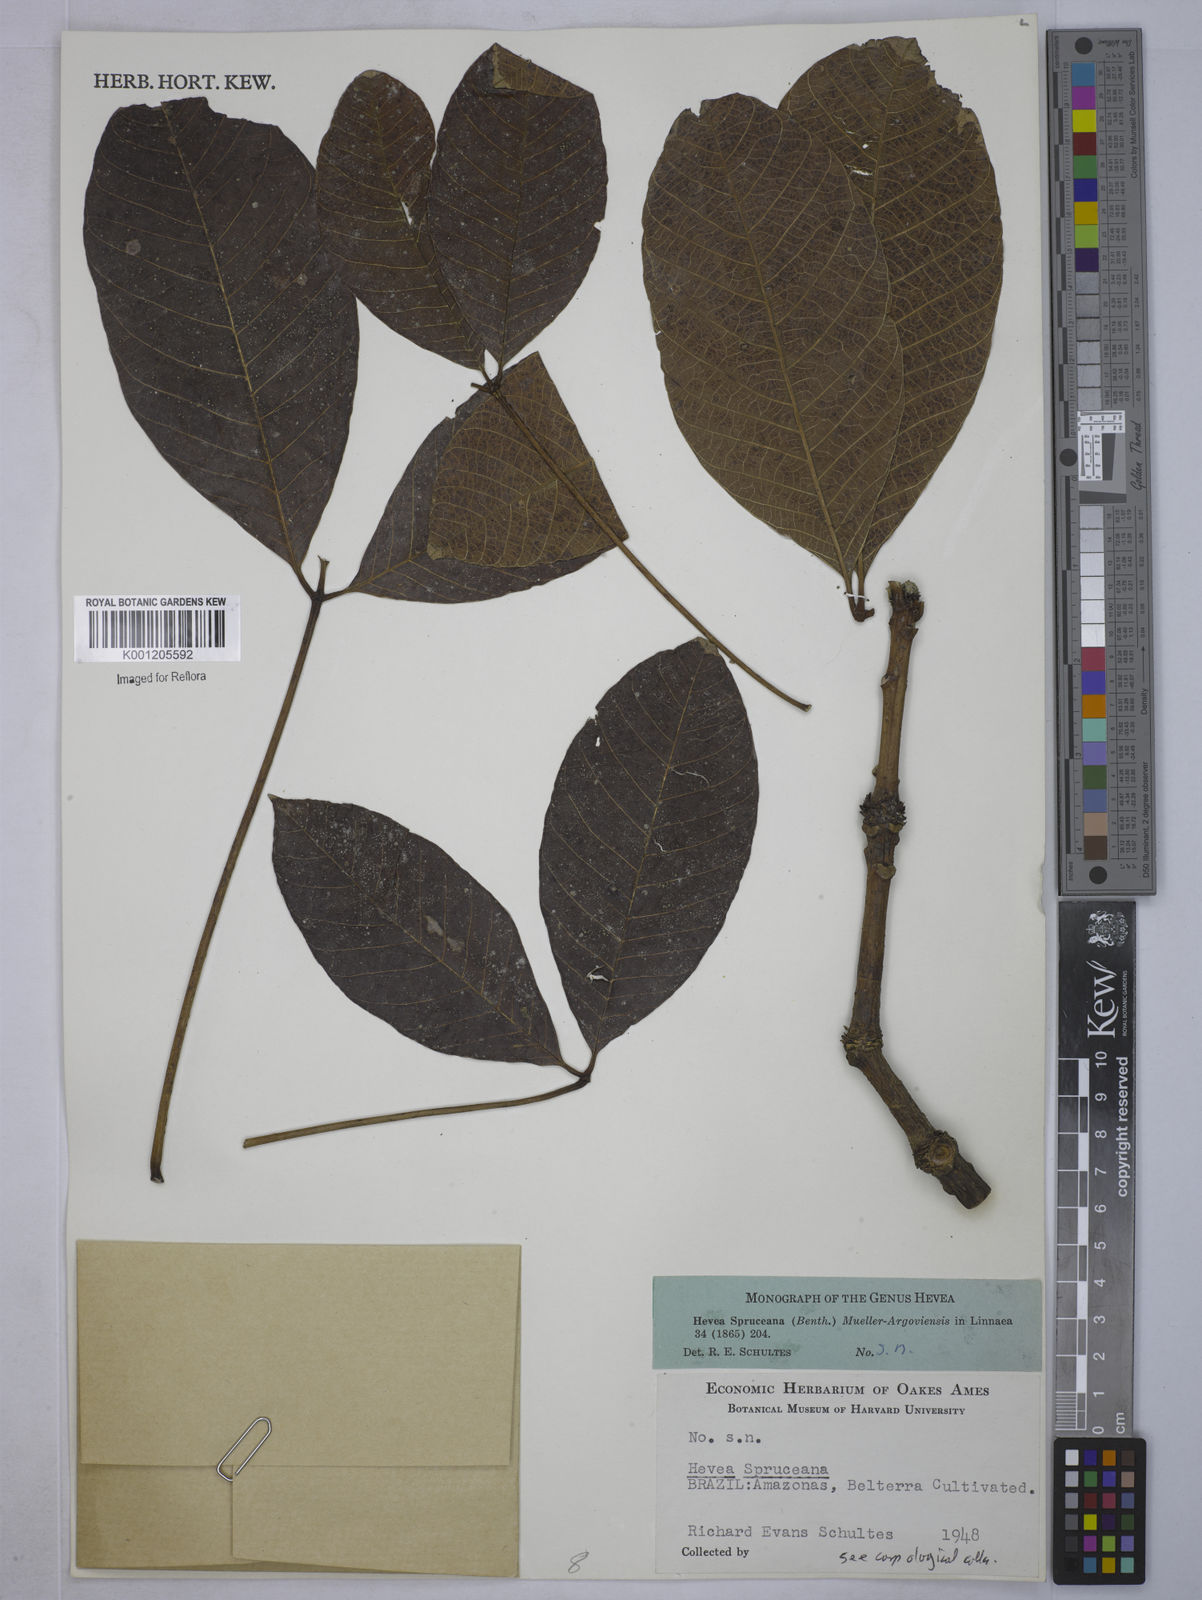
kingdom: Plantae
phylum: Tracheophyta
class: Magnoliopsida
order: Malpighiales
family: Euphorbiaceae
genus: Hevea
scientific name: Hevea
